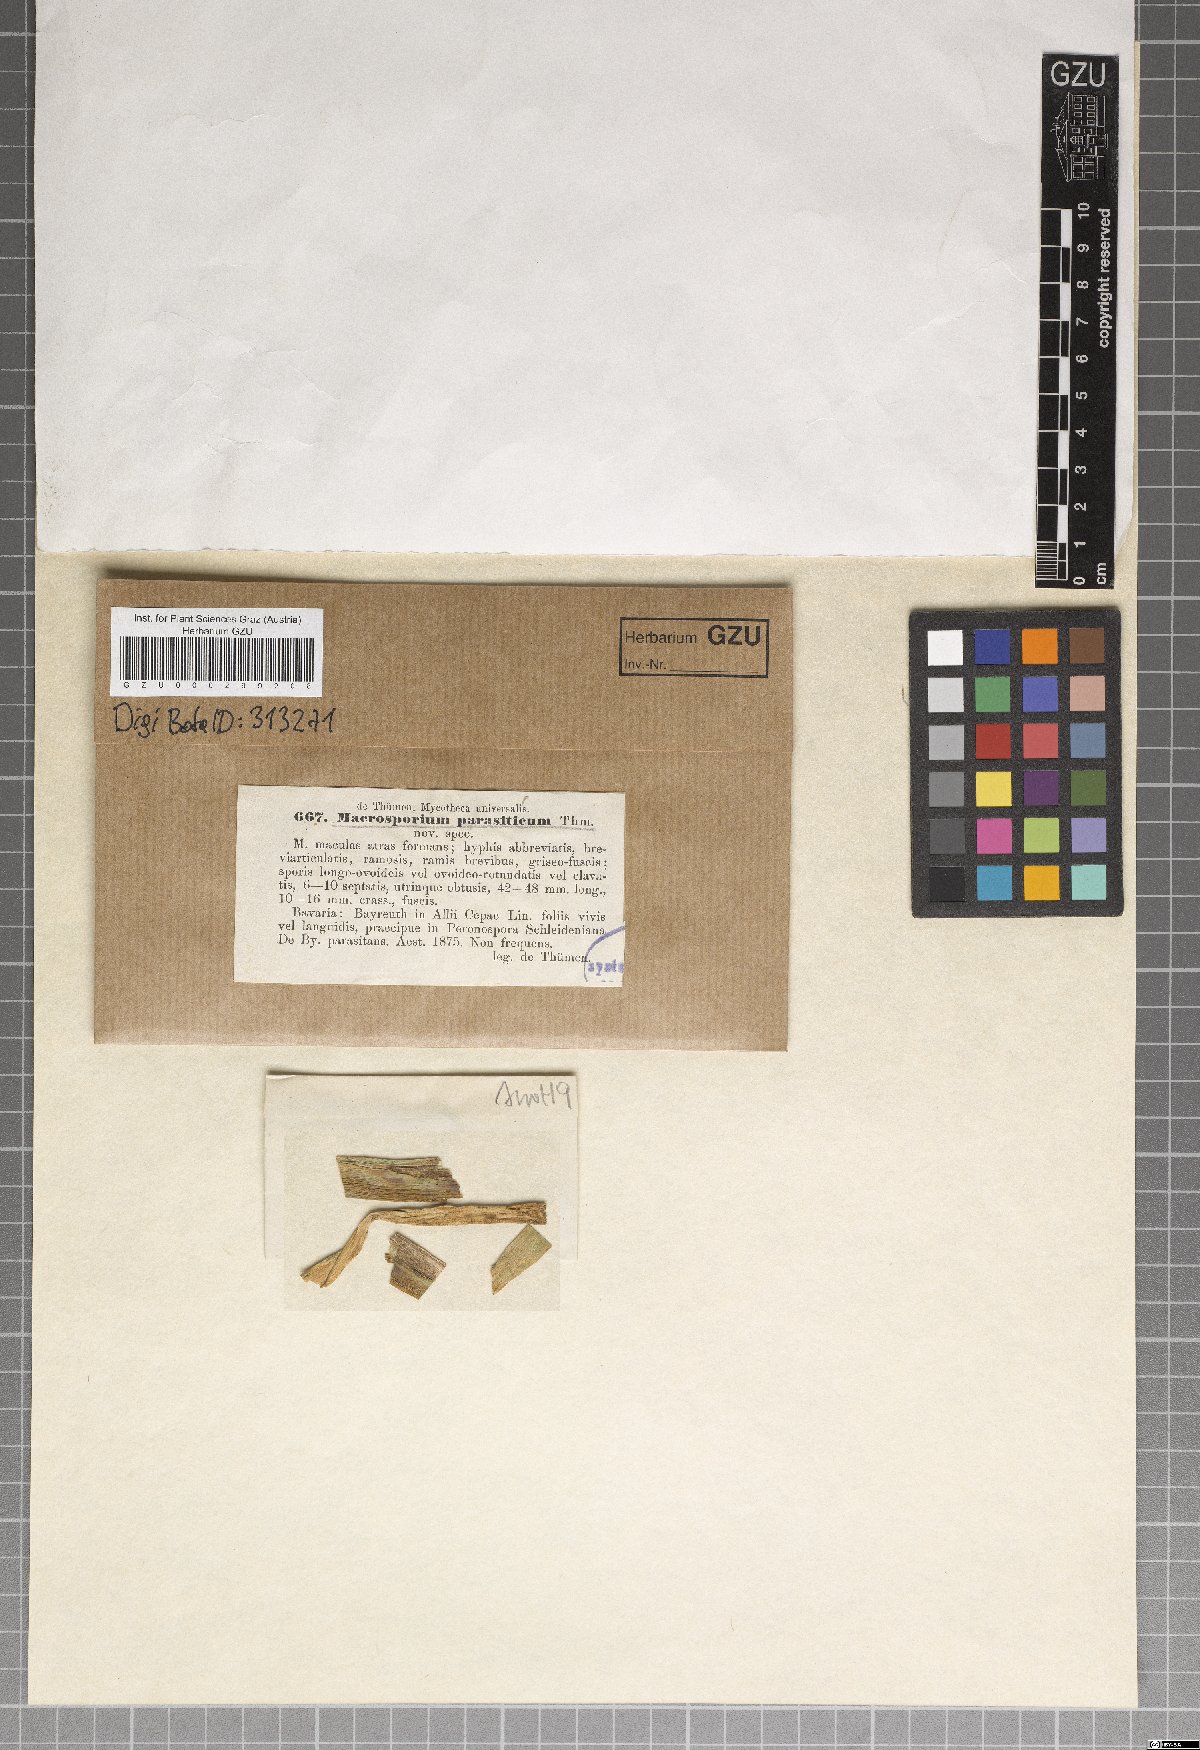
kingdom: Fungi
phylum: Ascomycota
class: Dothideomycetes
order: Pleosporales
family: Pleosporaceae
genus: Stemphylium
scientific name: Stemphylium vesicarium
